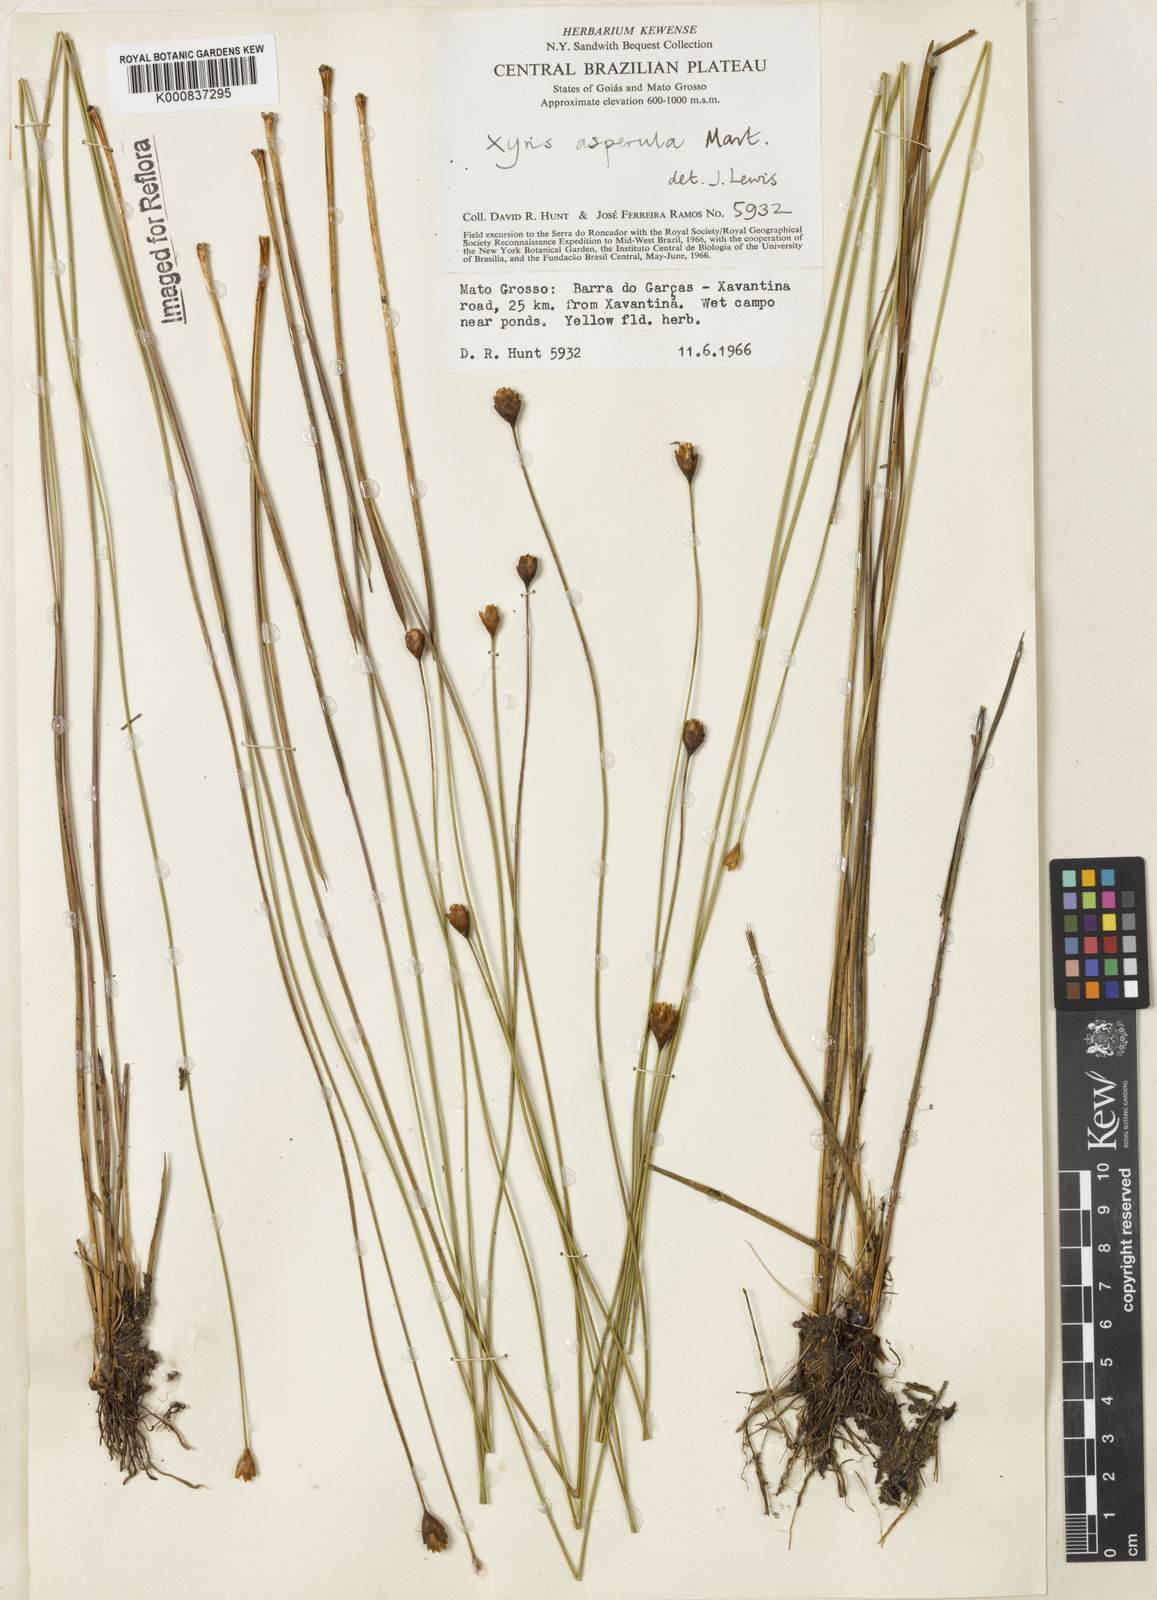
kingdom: Plantae
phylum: Tracheophyta
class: Liliopsida
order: Poales
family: Xyridaceae
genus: Xyris
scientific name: Xyris asperula
